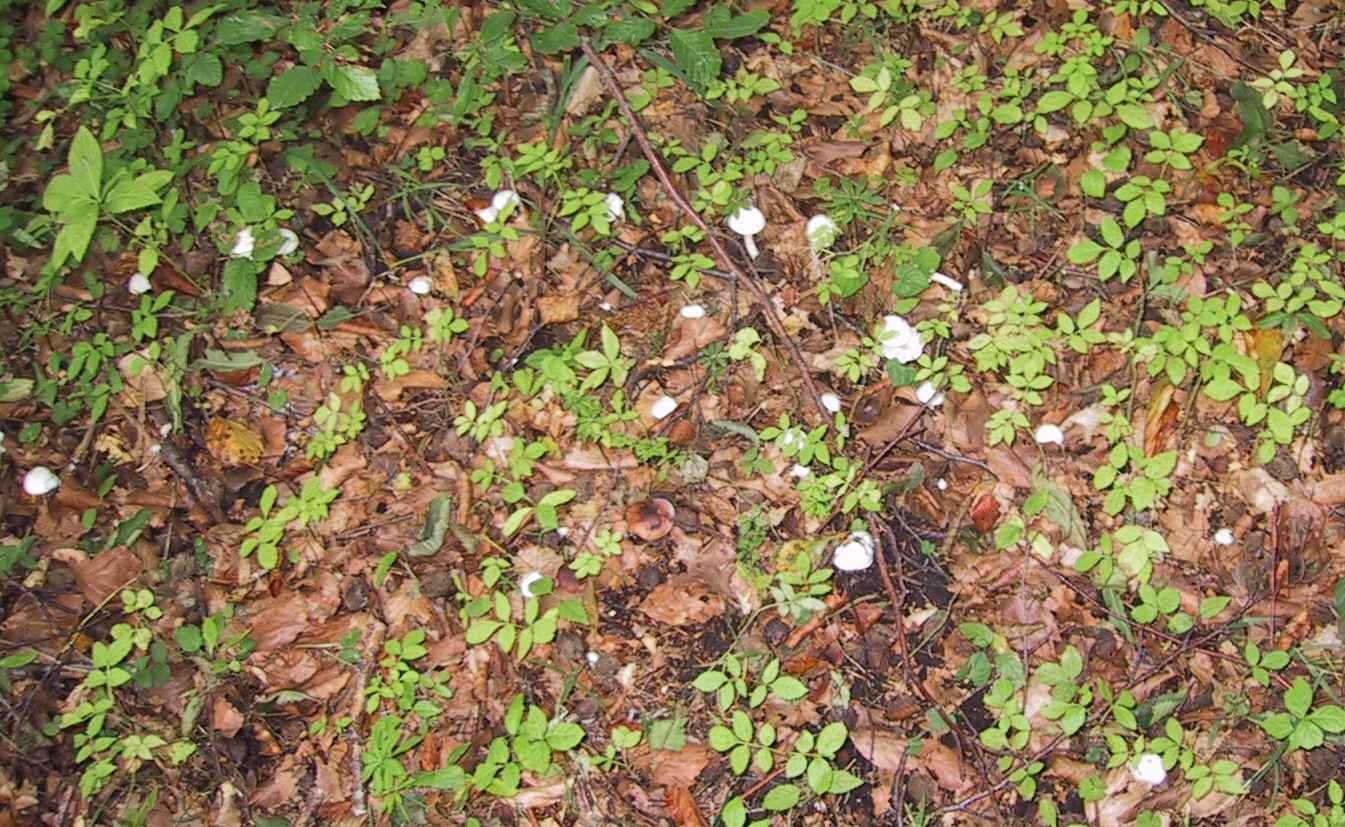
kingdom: Fungi
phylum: Basidiomycota
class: Agaricomycetes
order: Agaricales
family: Hygrophoraceae
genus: Hygrophorus
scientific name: Hygrophorus eburneus
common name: elfenbens-sneglehat
